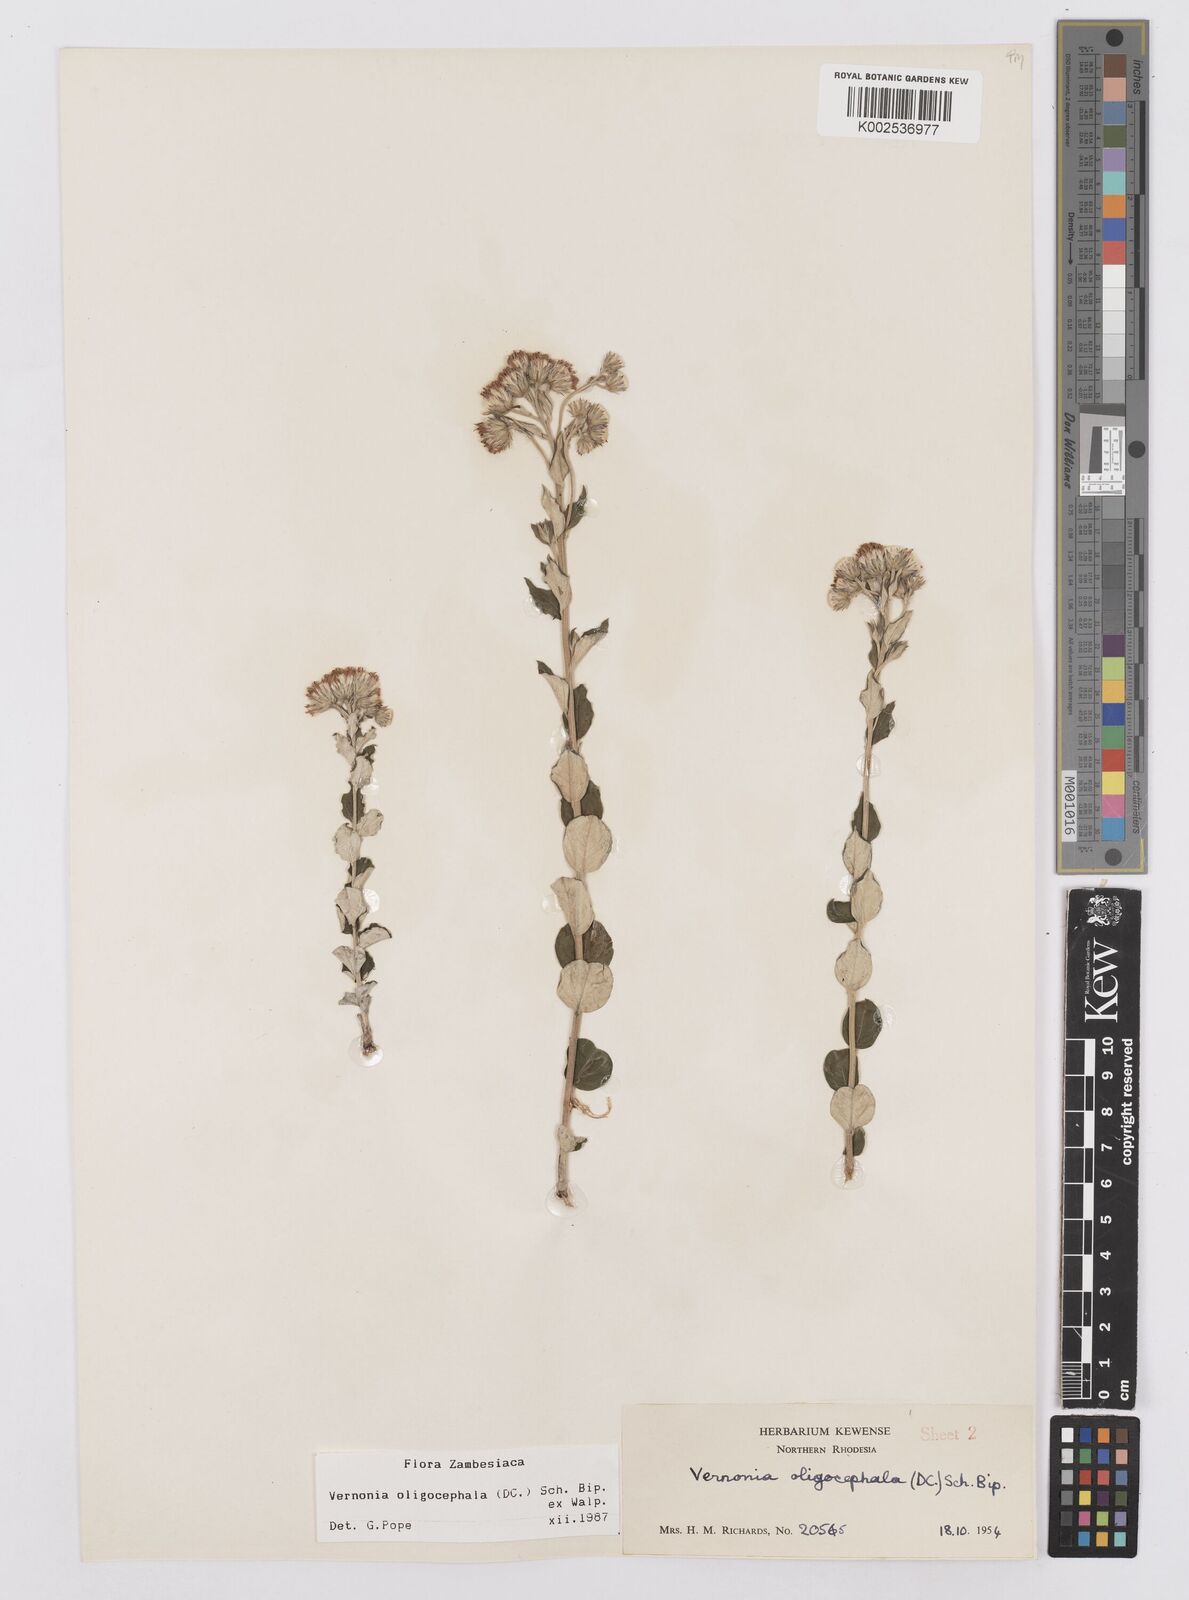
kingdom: Plantae
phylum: Tracheophyta
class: Magnoliopsida
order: Asterales
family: Asteraceae
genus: Hilliardiella
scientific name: Hilliardiella oligocephala
